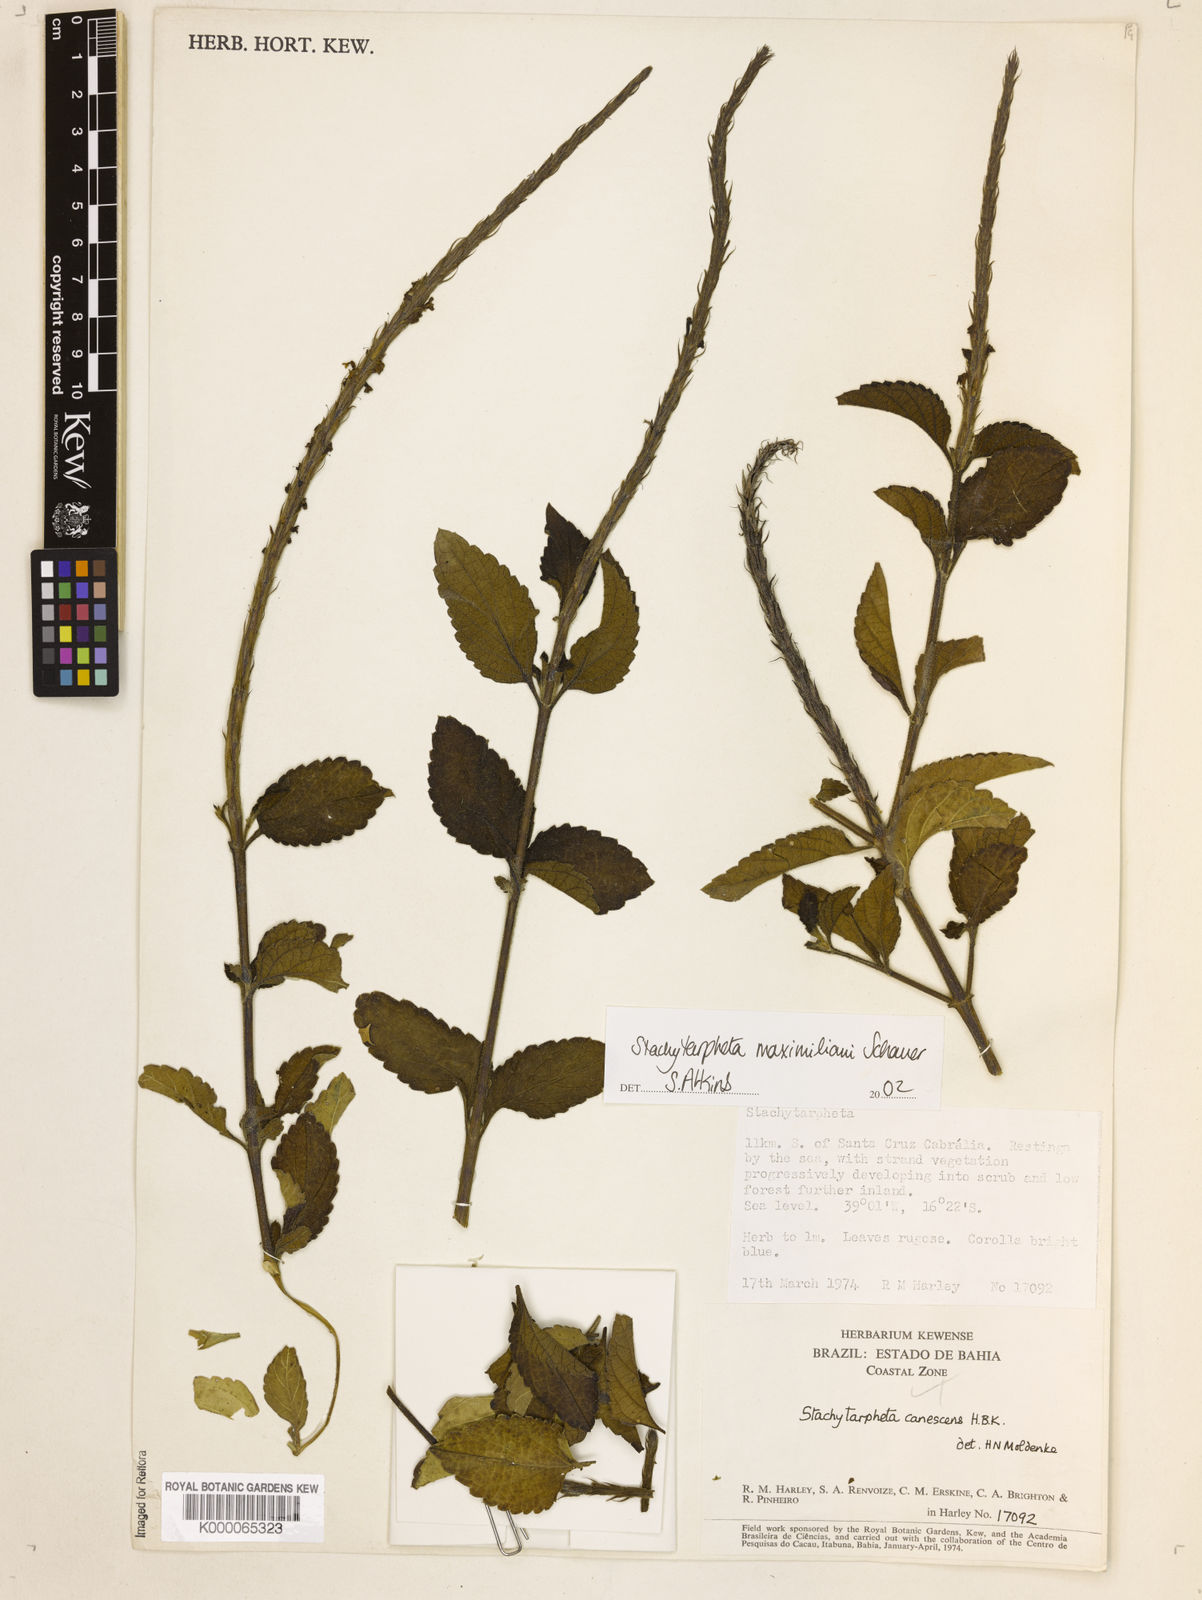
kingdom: Plantae
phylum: Tracheophyta
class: Magnoliopsida
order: Lamiales
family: Verbenaceae
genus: Stachytarpheta
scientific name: Stachytarpheta maximiliani
